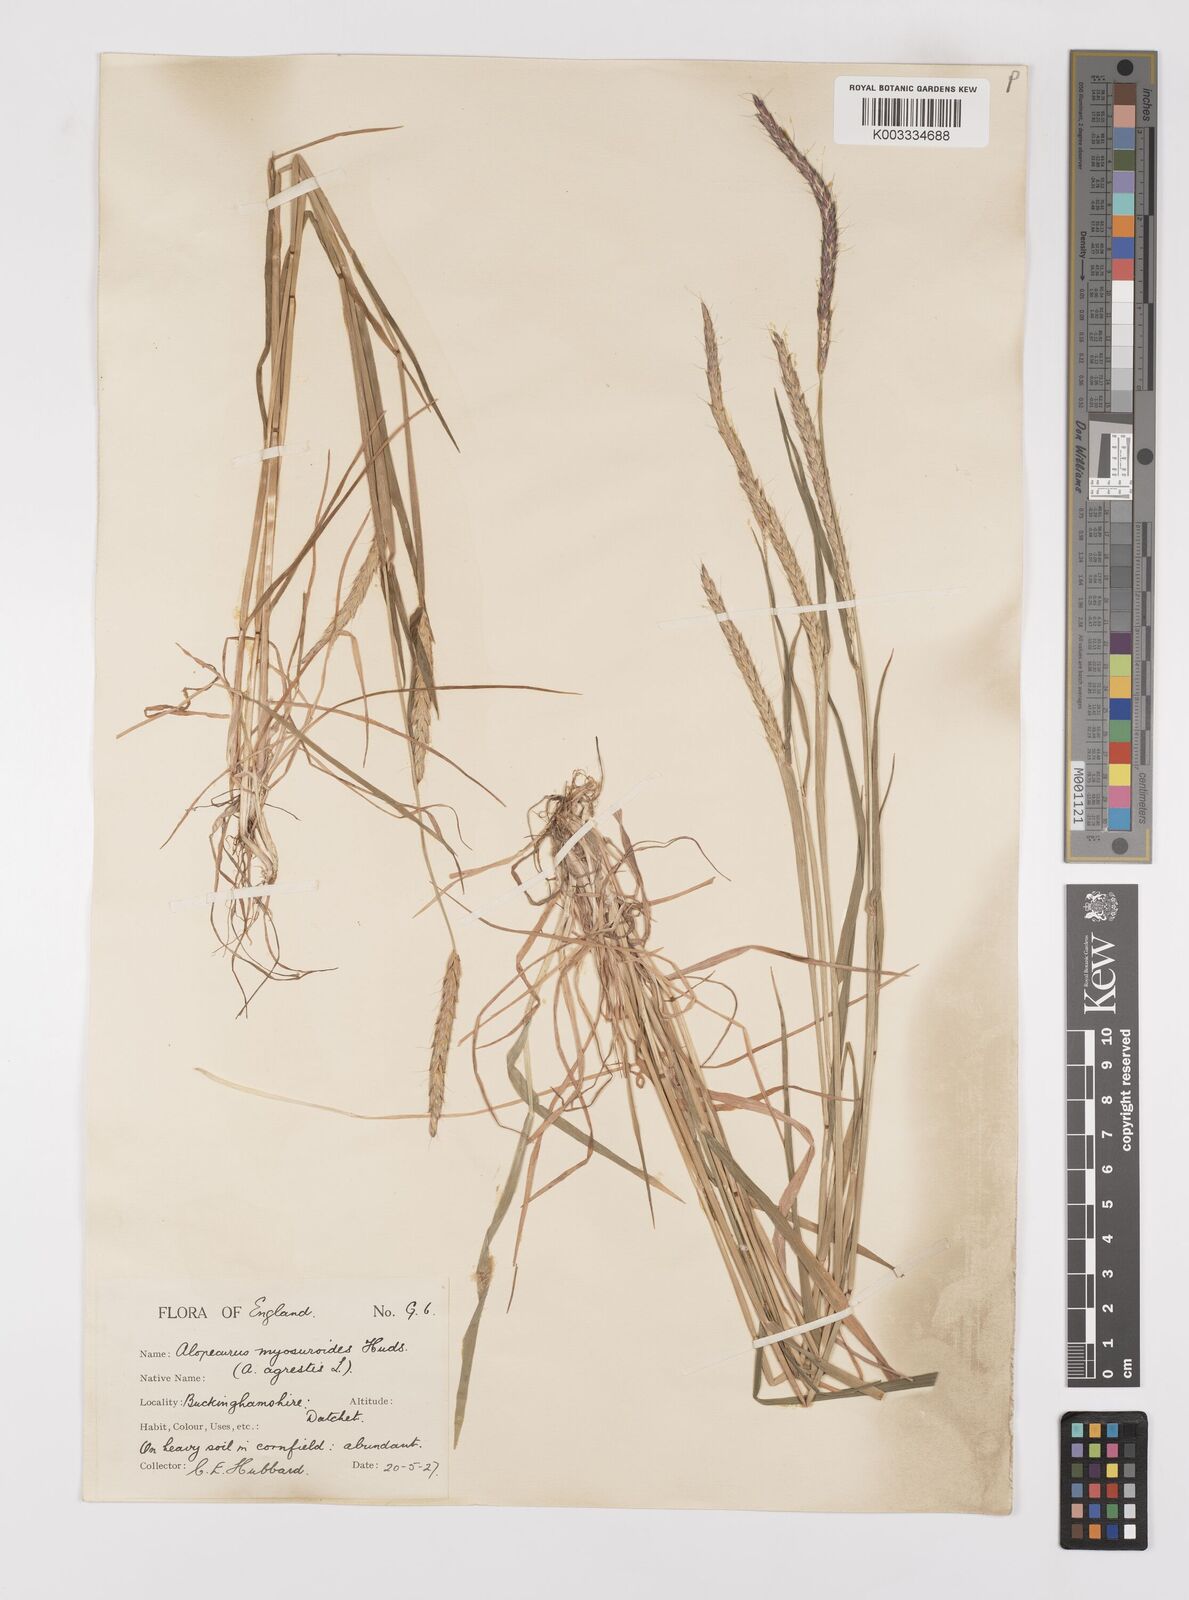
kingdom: Plantae
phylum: Tracheophyta
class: Liliopsida
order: Poales
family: Poaceae
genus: Alopecurus
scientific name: Alopecurus myosuroides
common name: Black-grass
